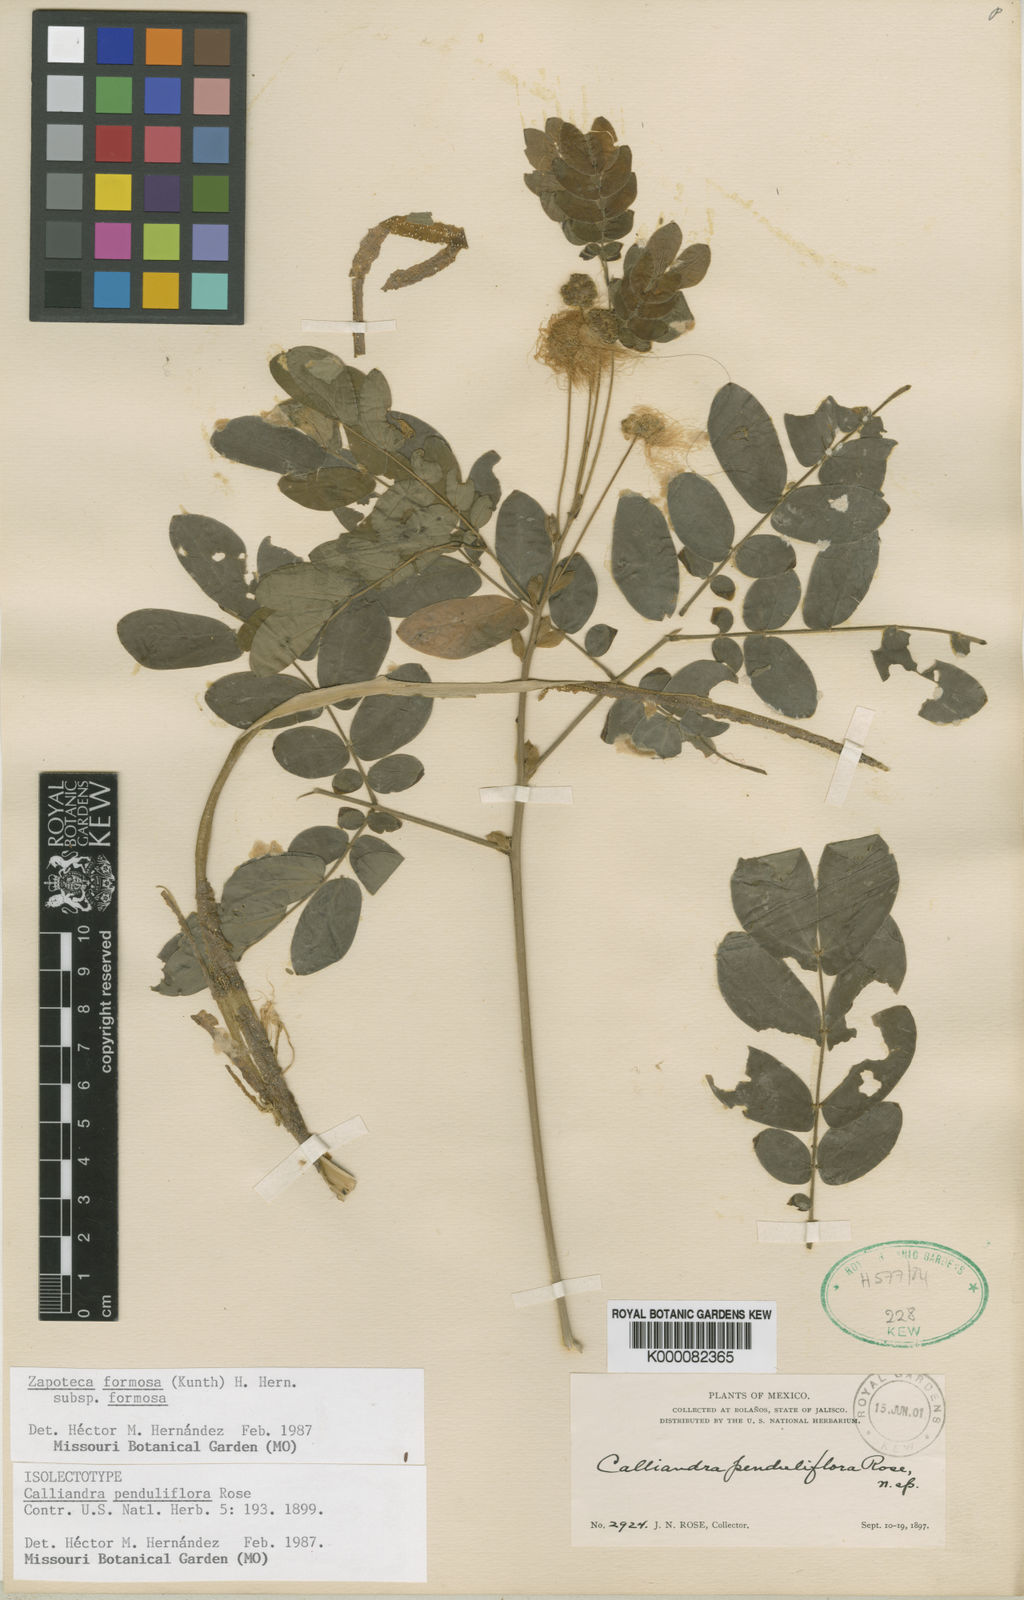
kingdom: Plantae
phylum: Tracheophyta
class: Magnoliopsida
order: Fabales
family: Fabaceae
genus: Zapoteca
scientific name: Zapoteca formosa
